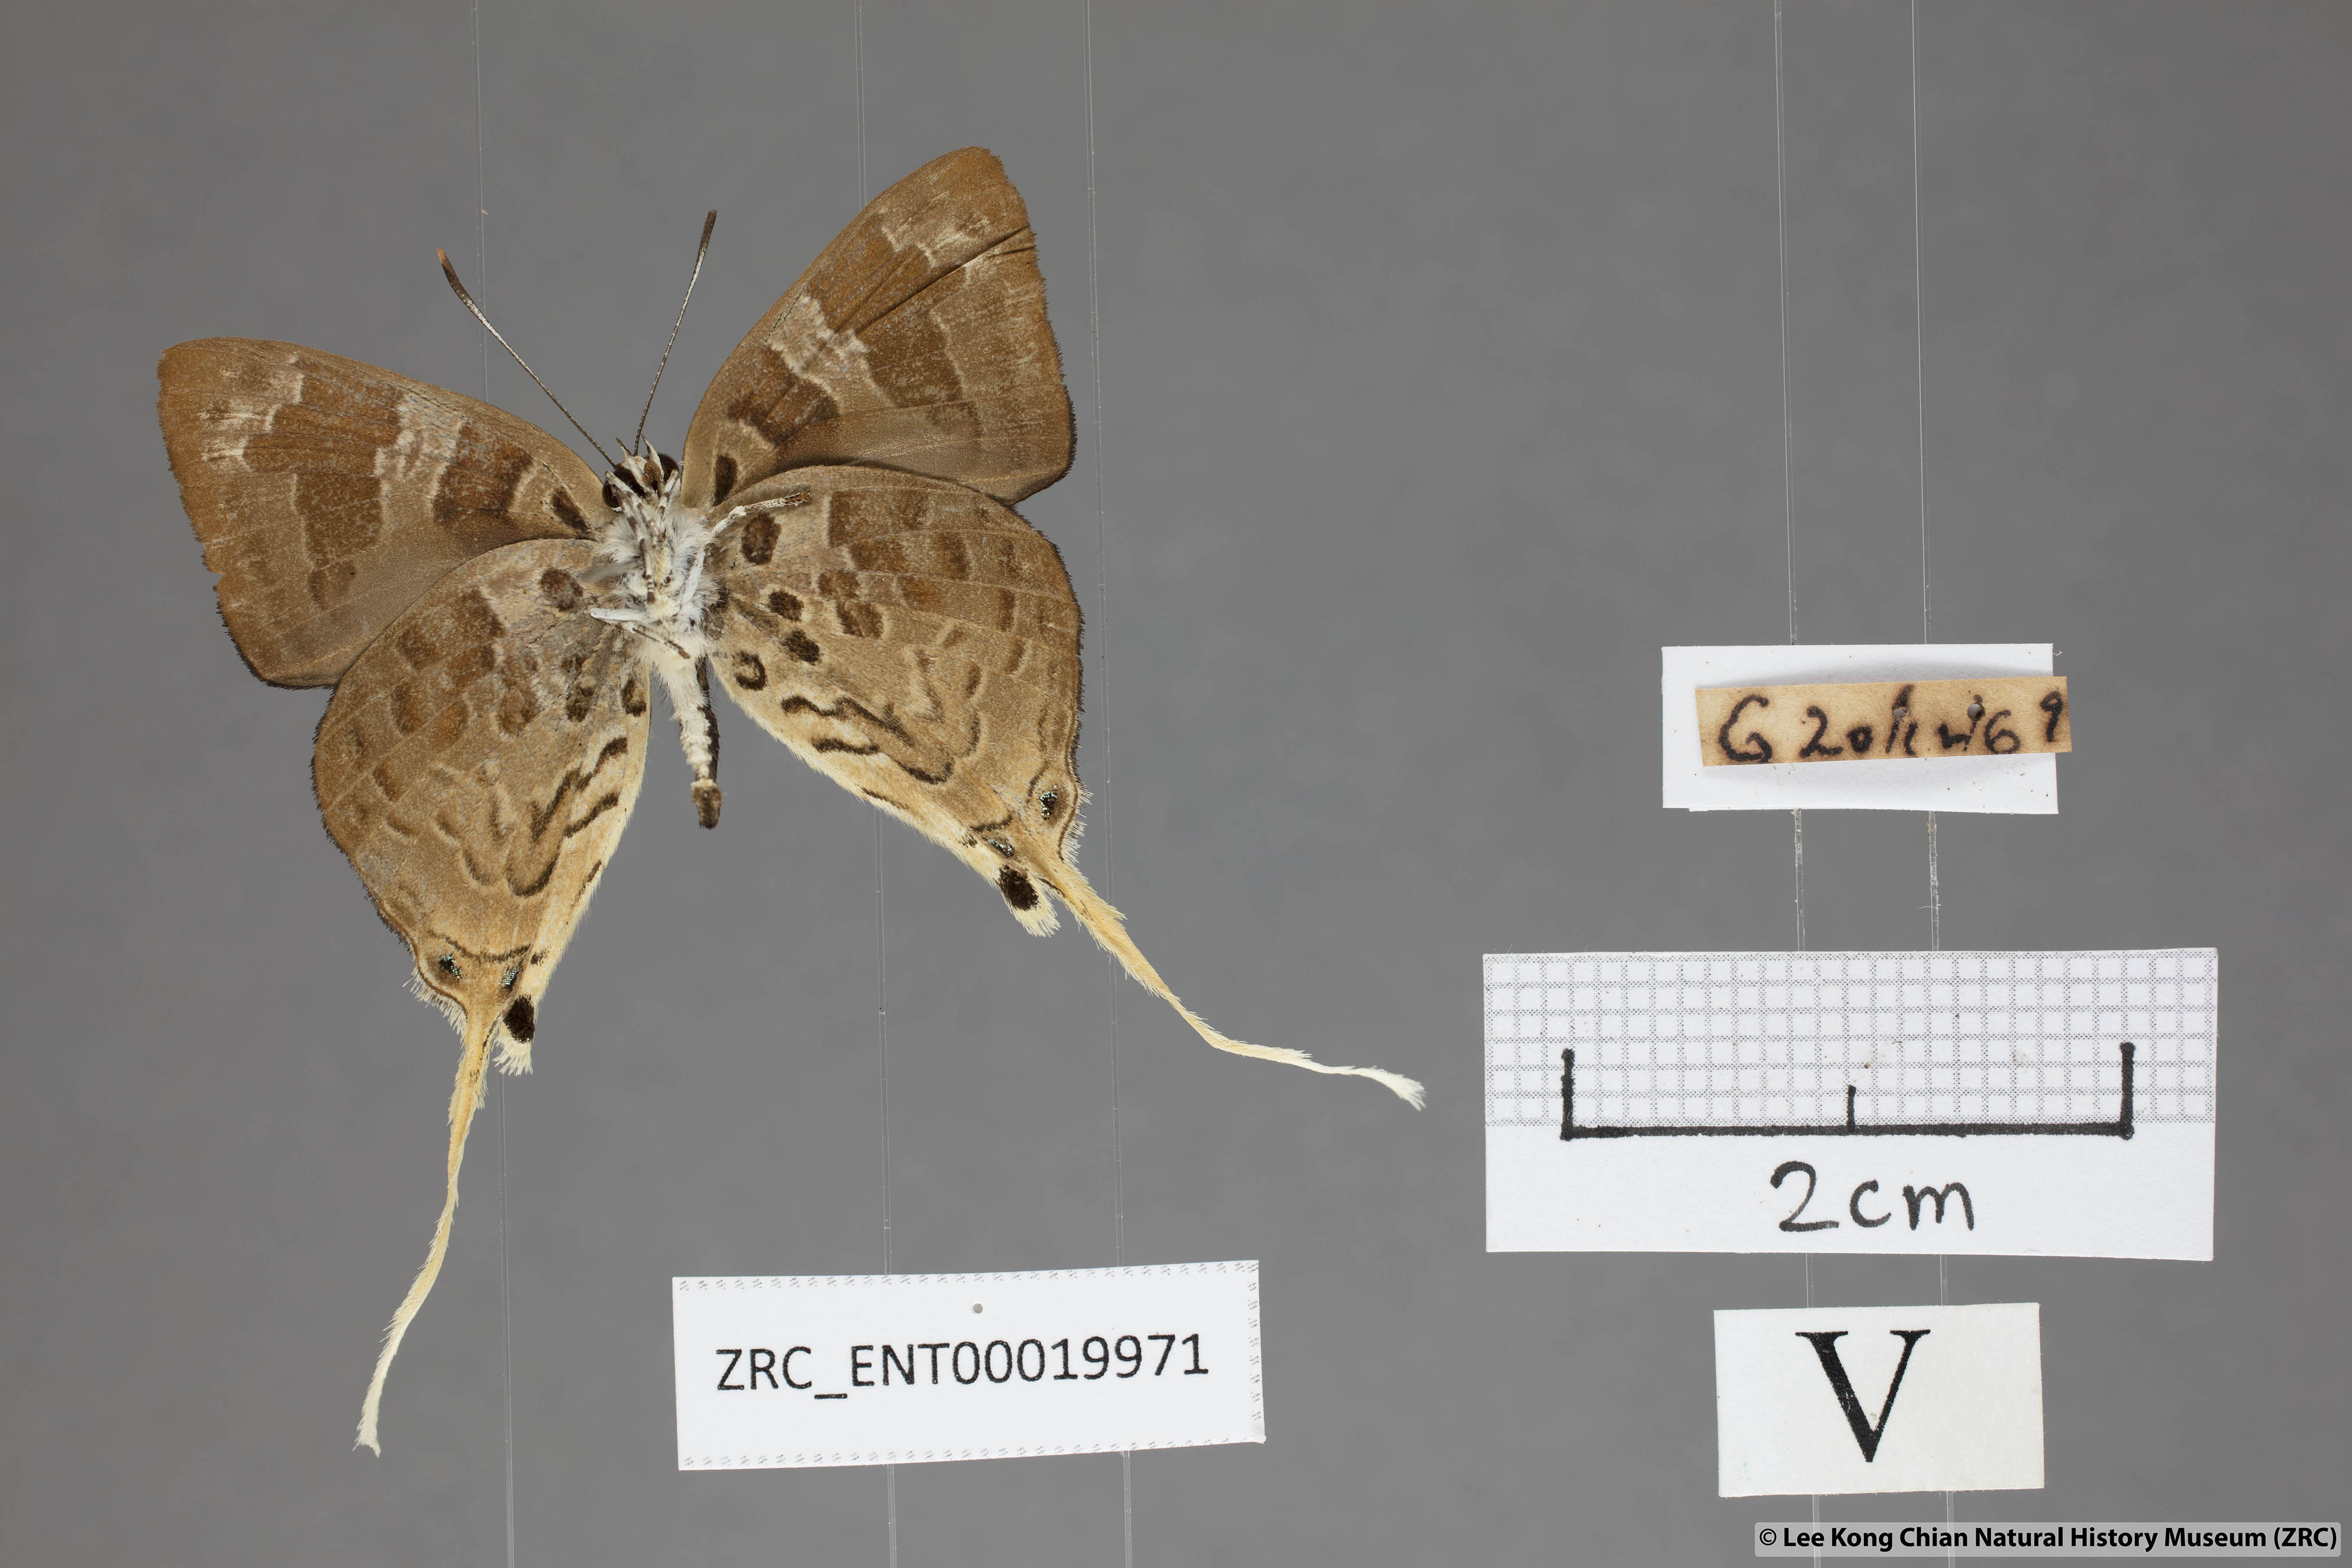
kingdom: Animalia
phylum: Arthropoda
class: Insecta
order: Lepidoptera
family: Lycaenidae
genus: Bindahara
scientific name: Bindahara phocides
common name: Sword-tailed flash
